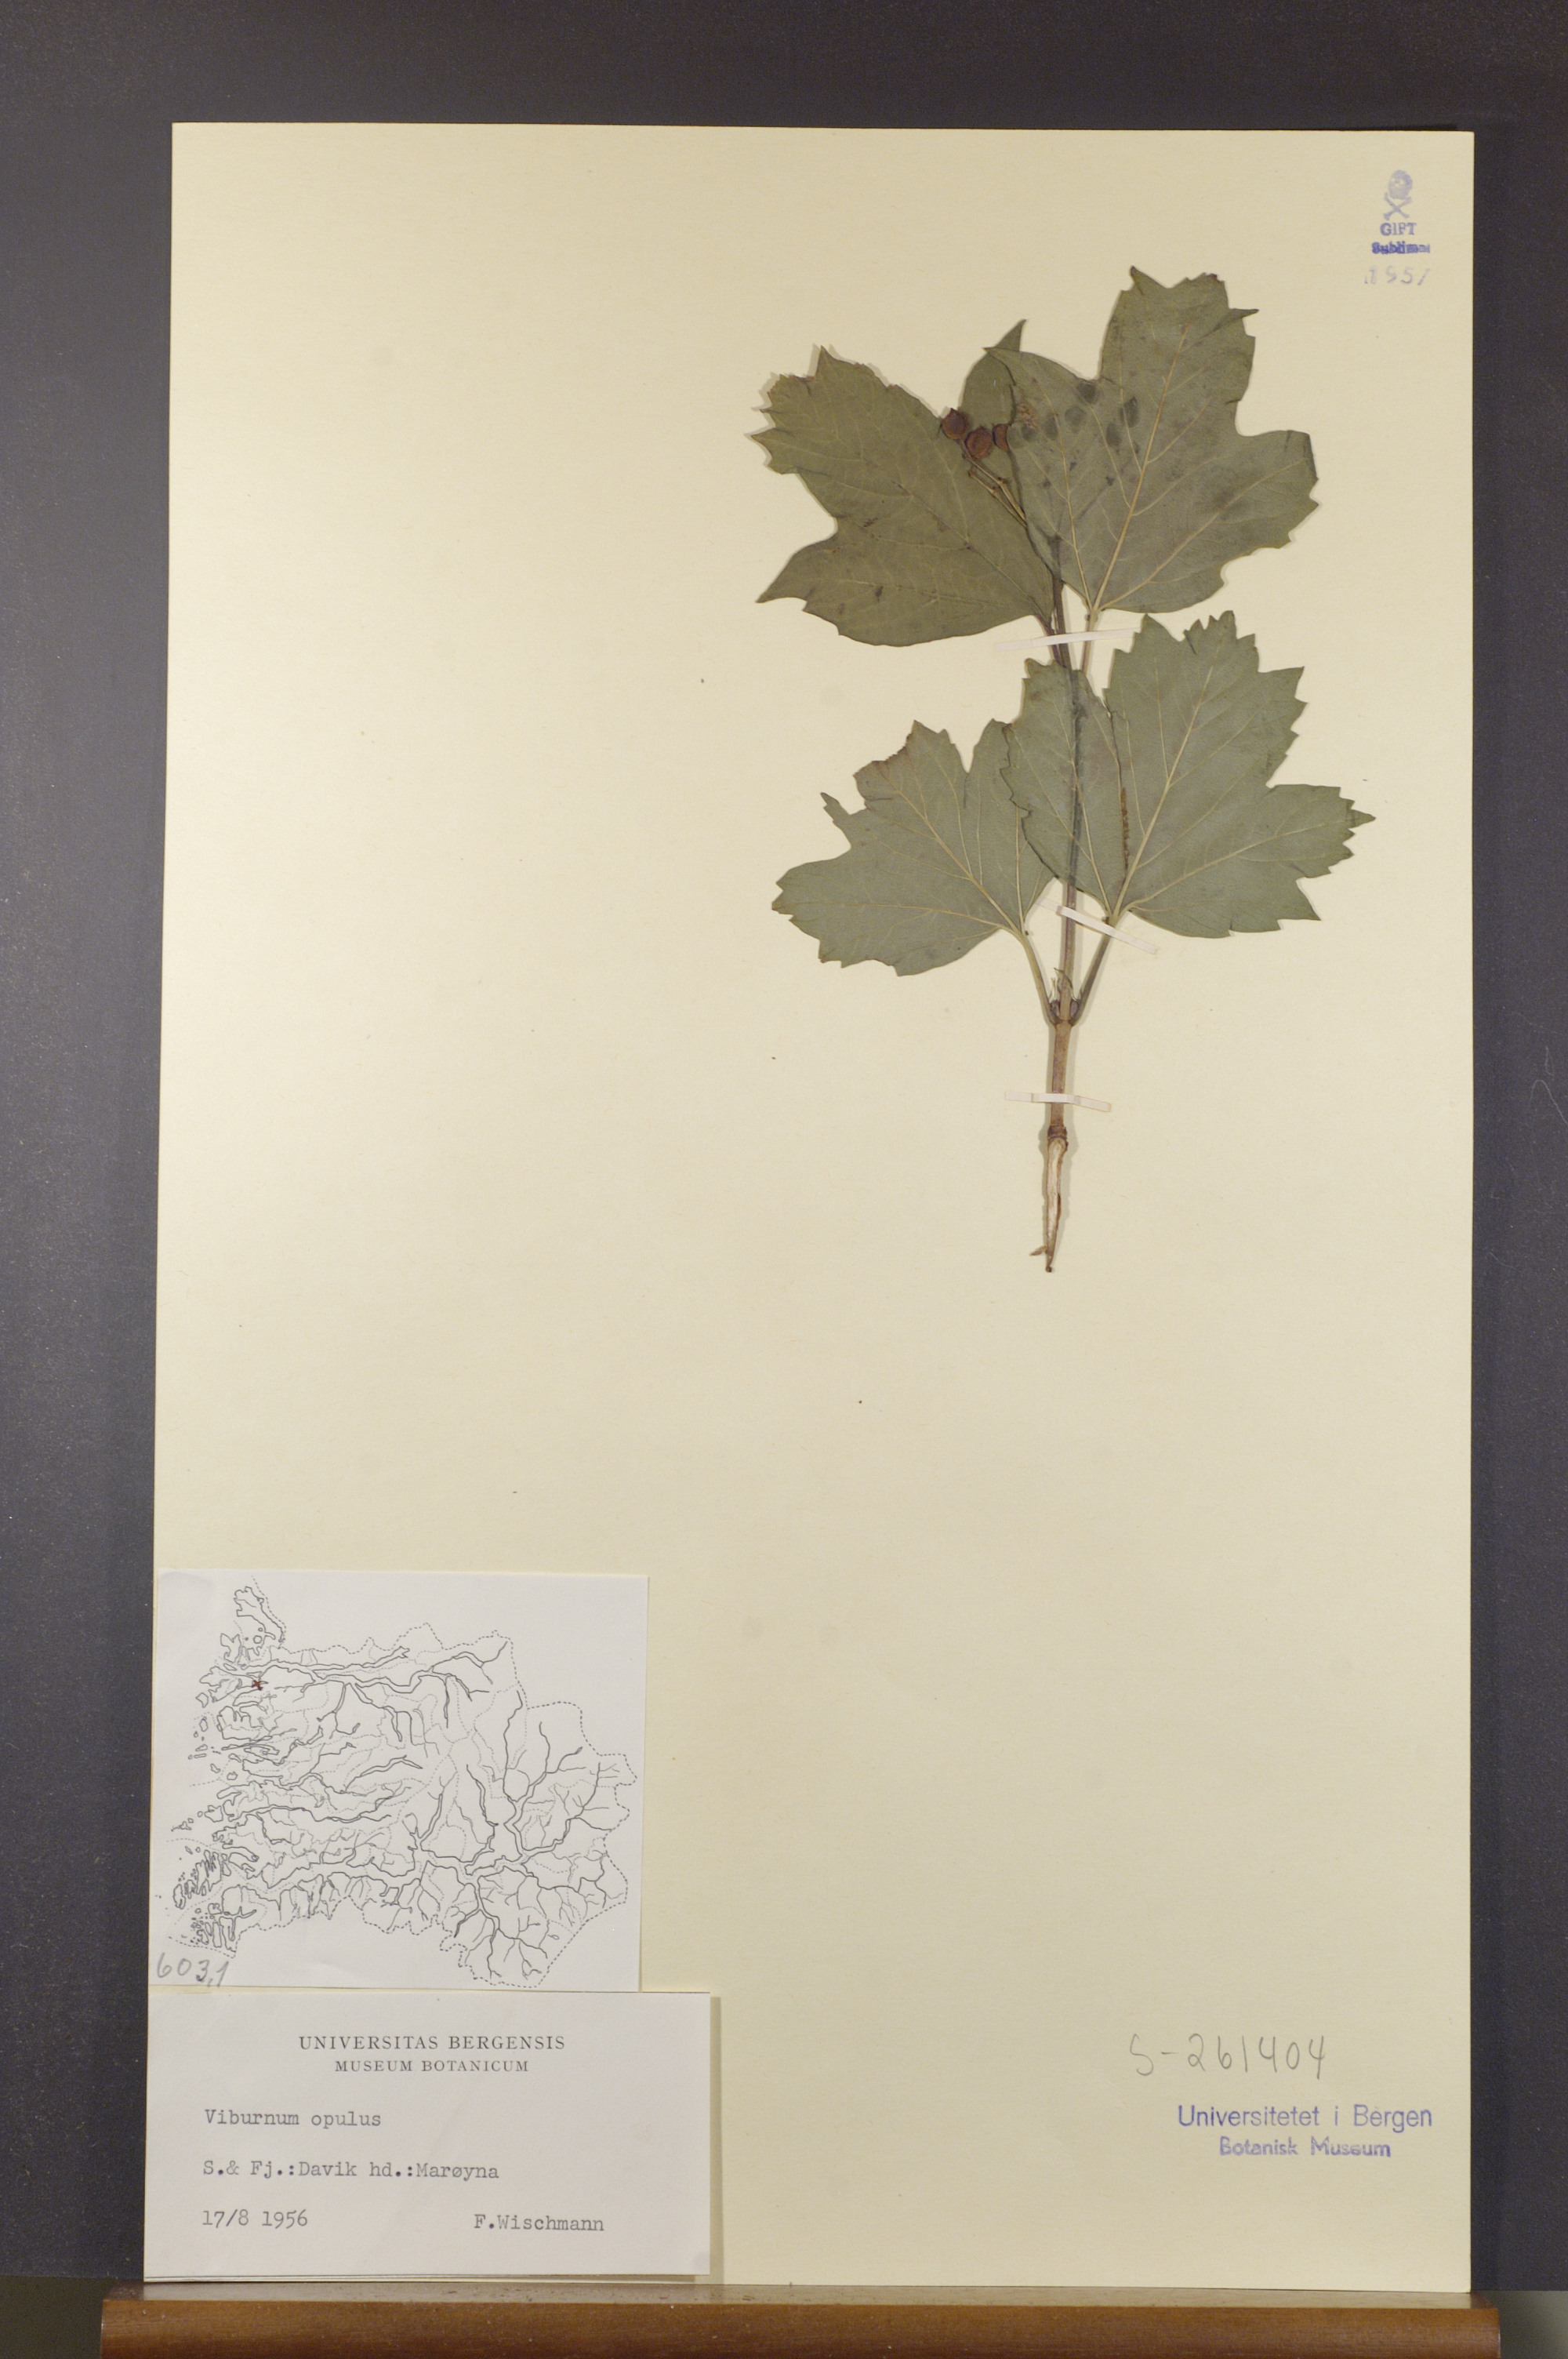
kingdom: Plantae
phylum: Tracheophyta
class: Magnoliopsida
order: Dipsacales
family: Viburnaceae
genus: Viburnum
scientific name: Viburnum opulus
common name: Guelder-rose
